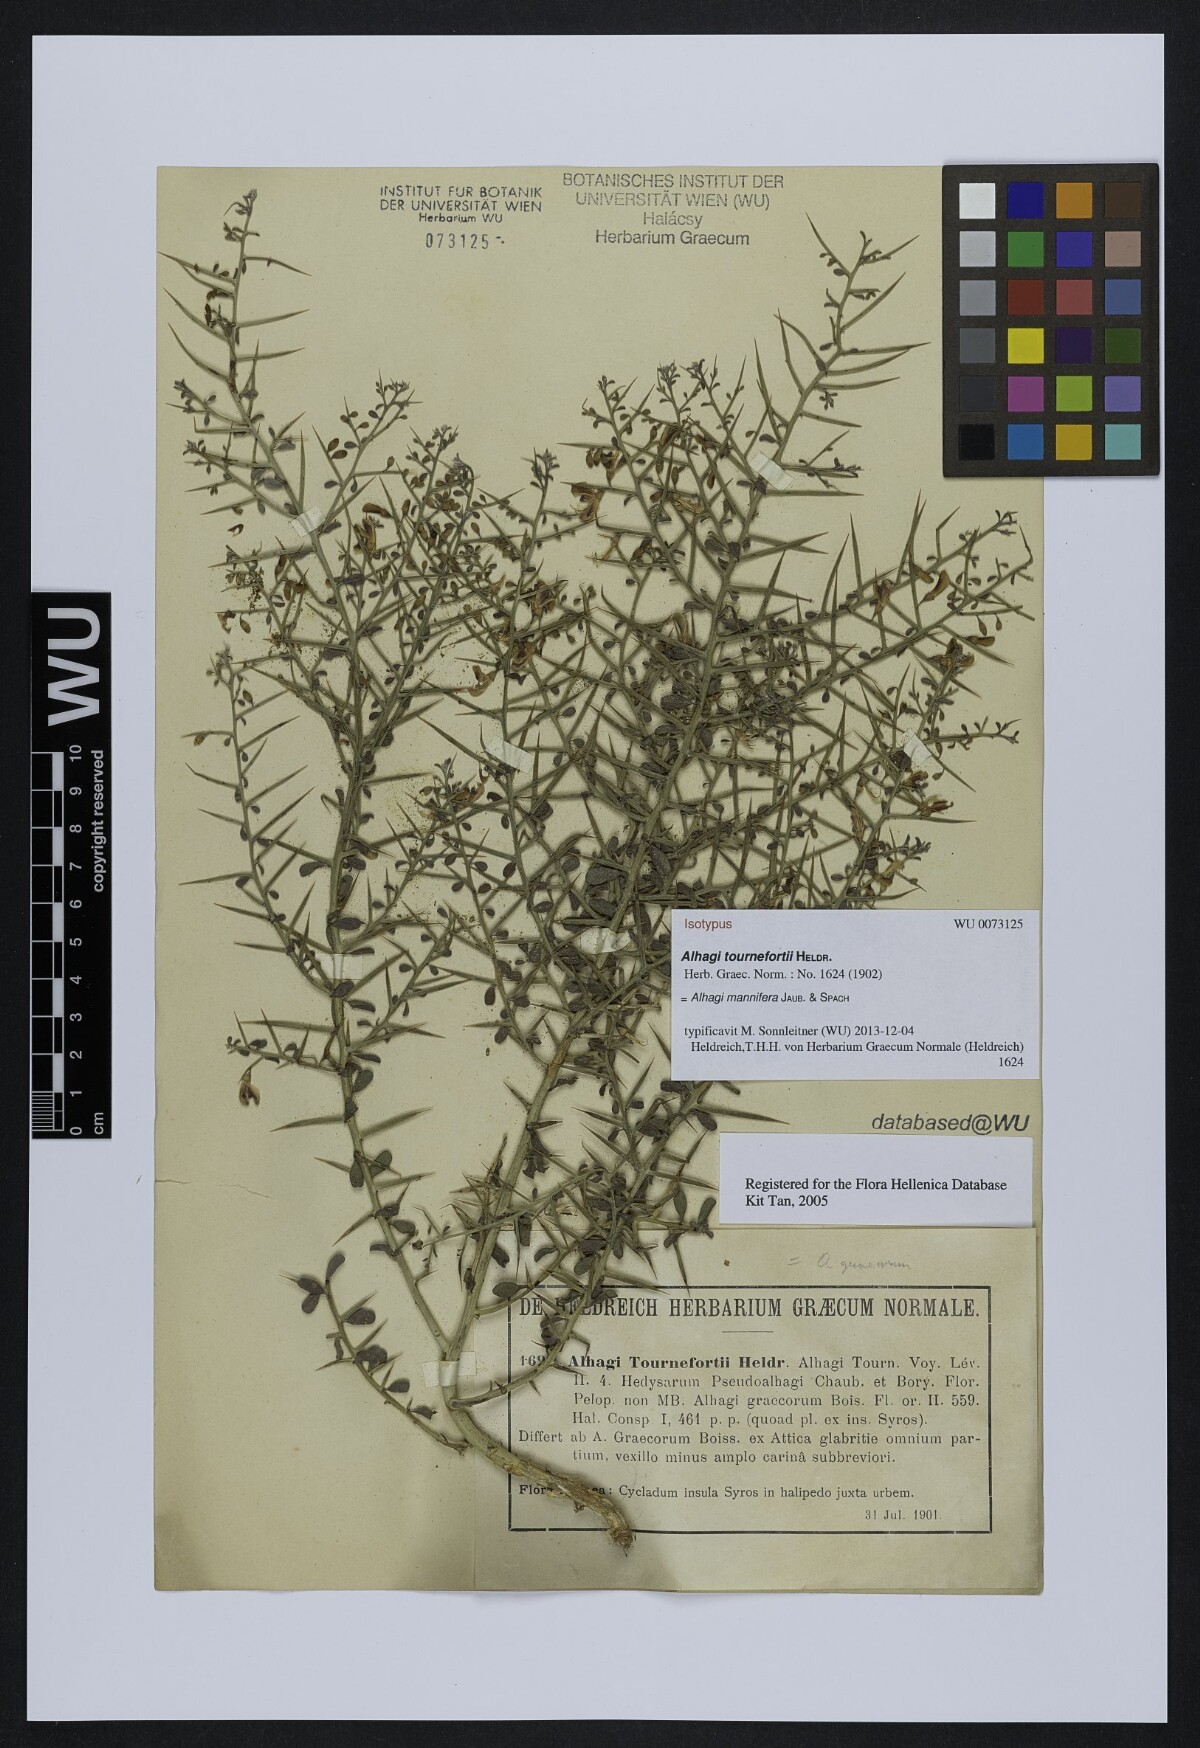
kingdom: Plantae
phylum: Tracheophyta
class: Magnoliopsida
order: Fabales
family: Fabaceae
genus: Alhagi
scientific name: Alhagi graecorum
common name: Persian mannaplant
